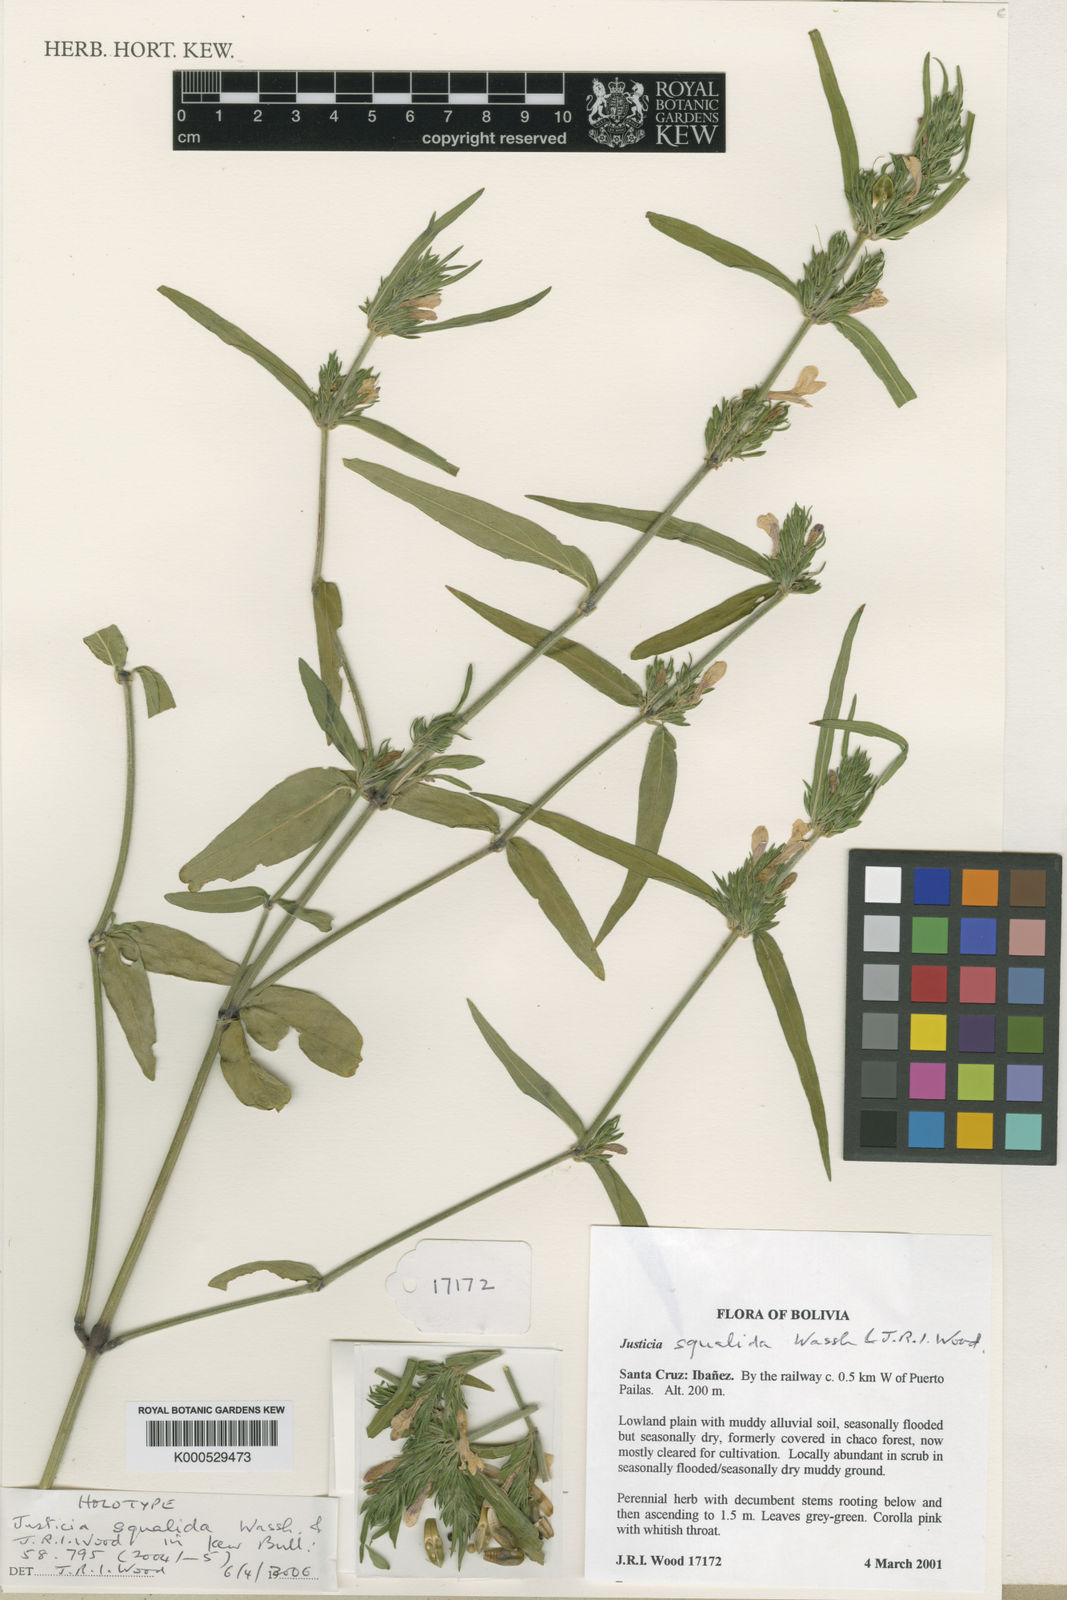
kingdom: Plantae
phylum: Tracheophyta
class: Magnoliopsida
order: Lamiales
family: Acanthaceae
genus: Justicia
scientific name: Justicia dumetorum
